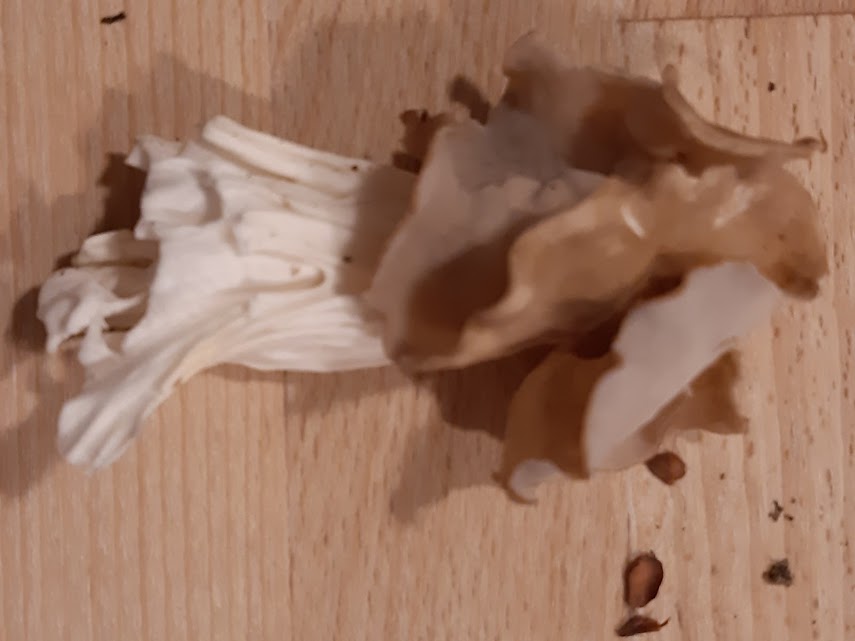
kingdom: Fungi
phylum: Ascomycota
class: Pezizomycetes
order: Pezizales
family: Helvellaceae
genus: Helvella
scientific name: Helvella crispa
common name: kruset foldhat
